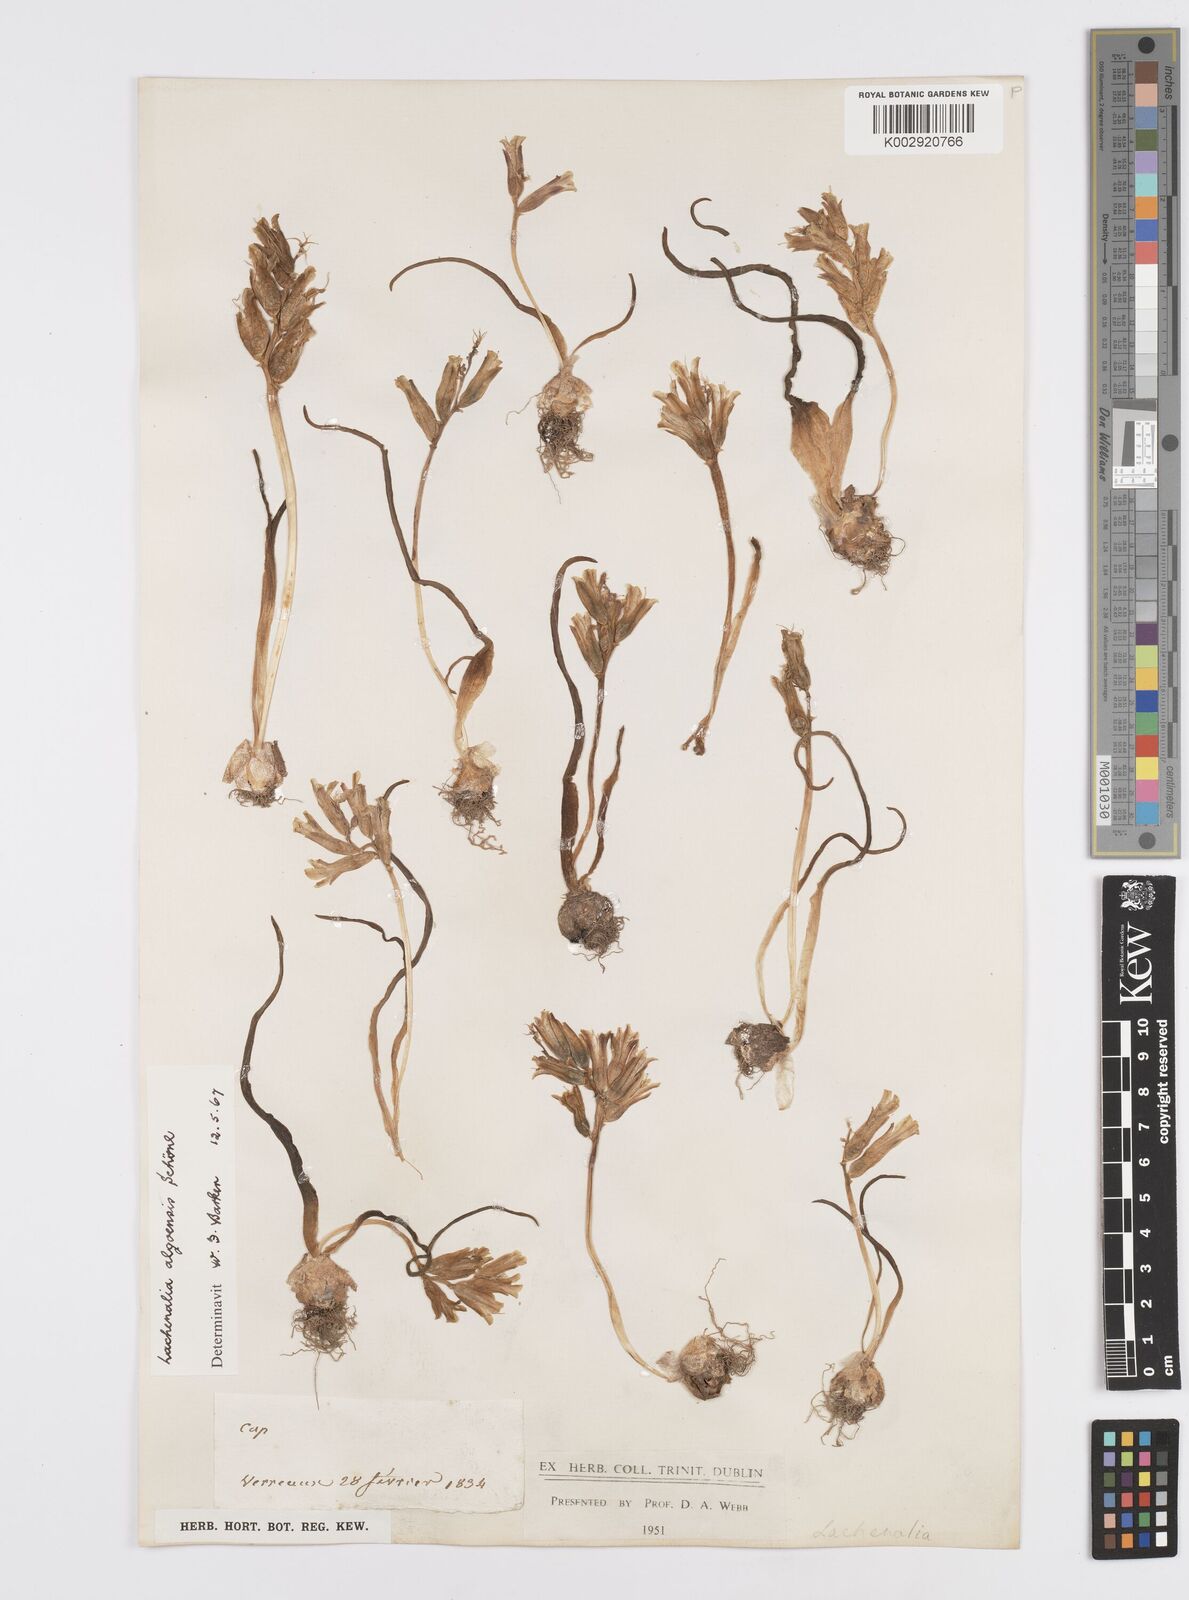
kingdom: Plantae
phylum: Tracheophyta
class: Liliopsida
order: Asparagales
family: Asparagaceae
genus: Lachenalia
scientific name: Lachenalia algoensis
